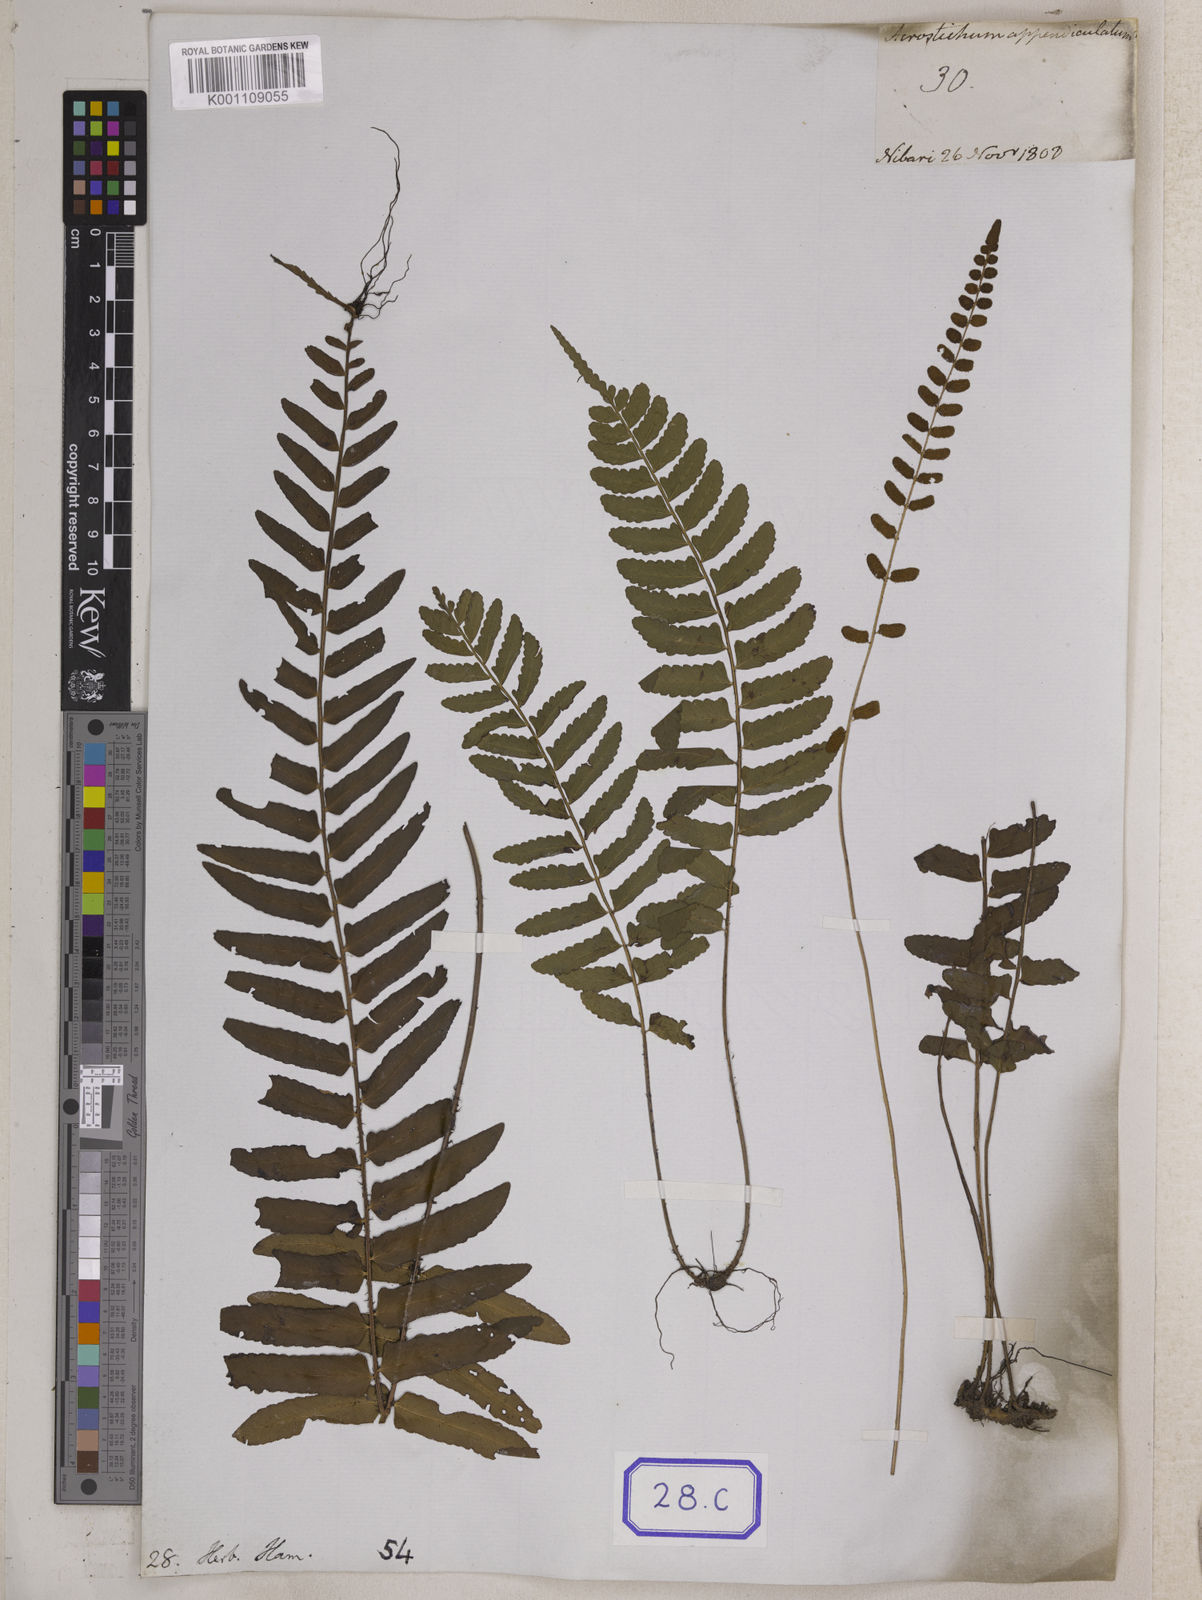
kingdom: Plantae
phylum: Tracheophyta
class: Polypodiopsida
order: Polypodiales
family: Pteridaceae
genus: Acrostichum
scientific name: Acrostichum
